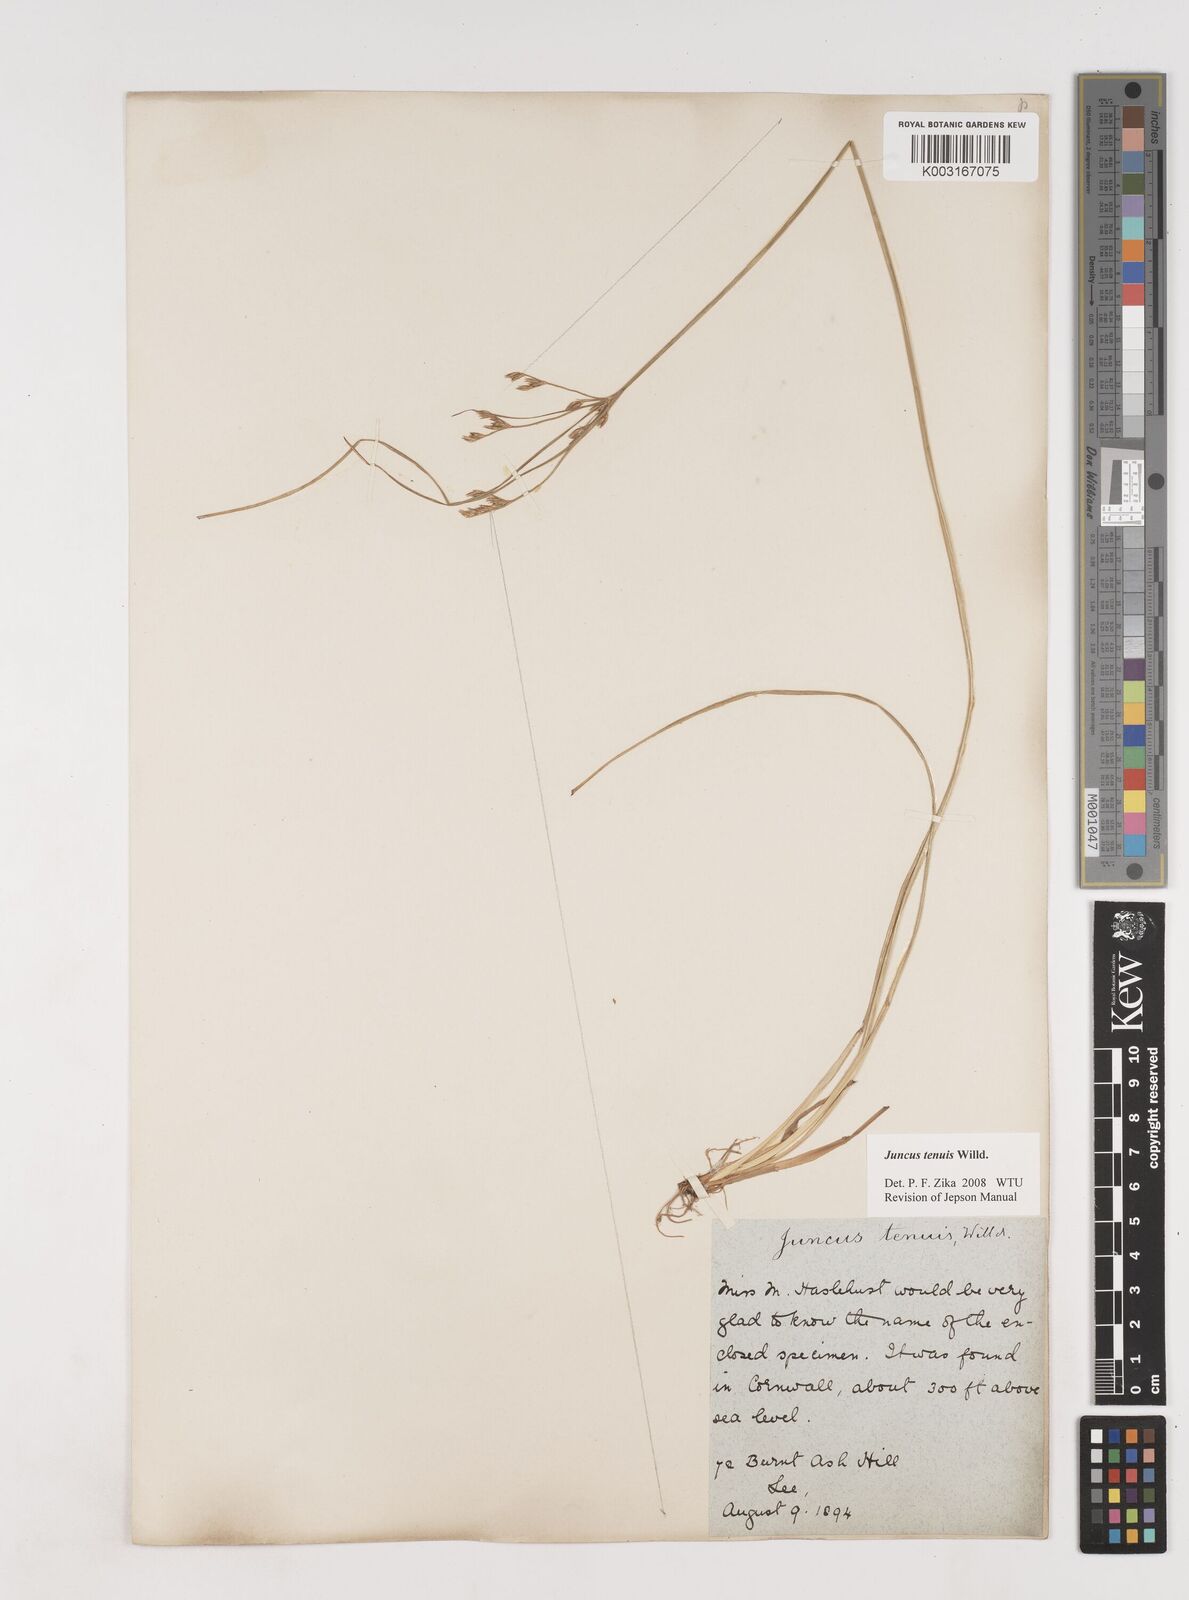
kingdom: Plantae
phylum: Tracheophyta
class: Liliopsida
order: Poales
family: Juncaceae
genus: Juncus
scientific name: Juncus tenuis
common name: Slender rush
